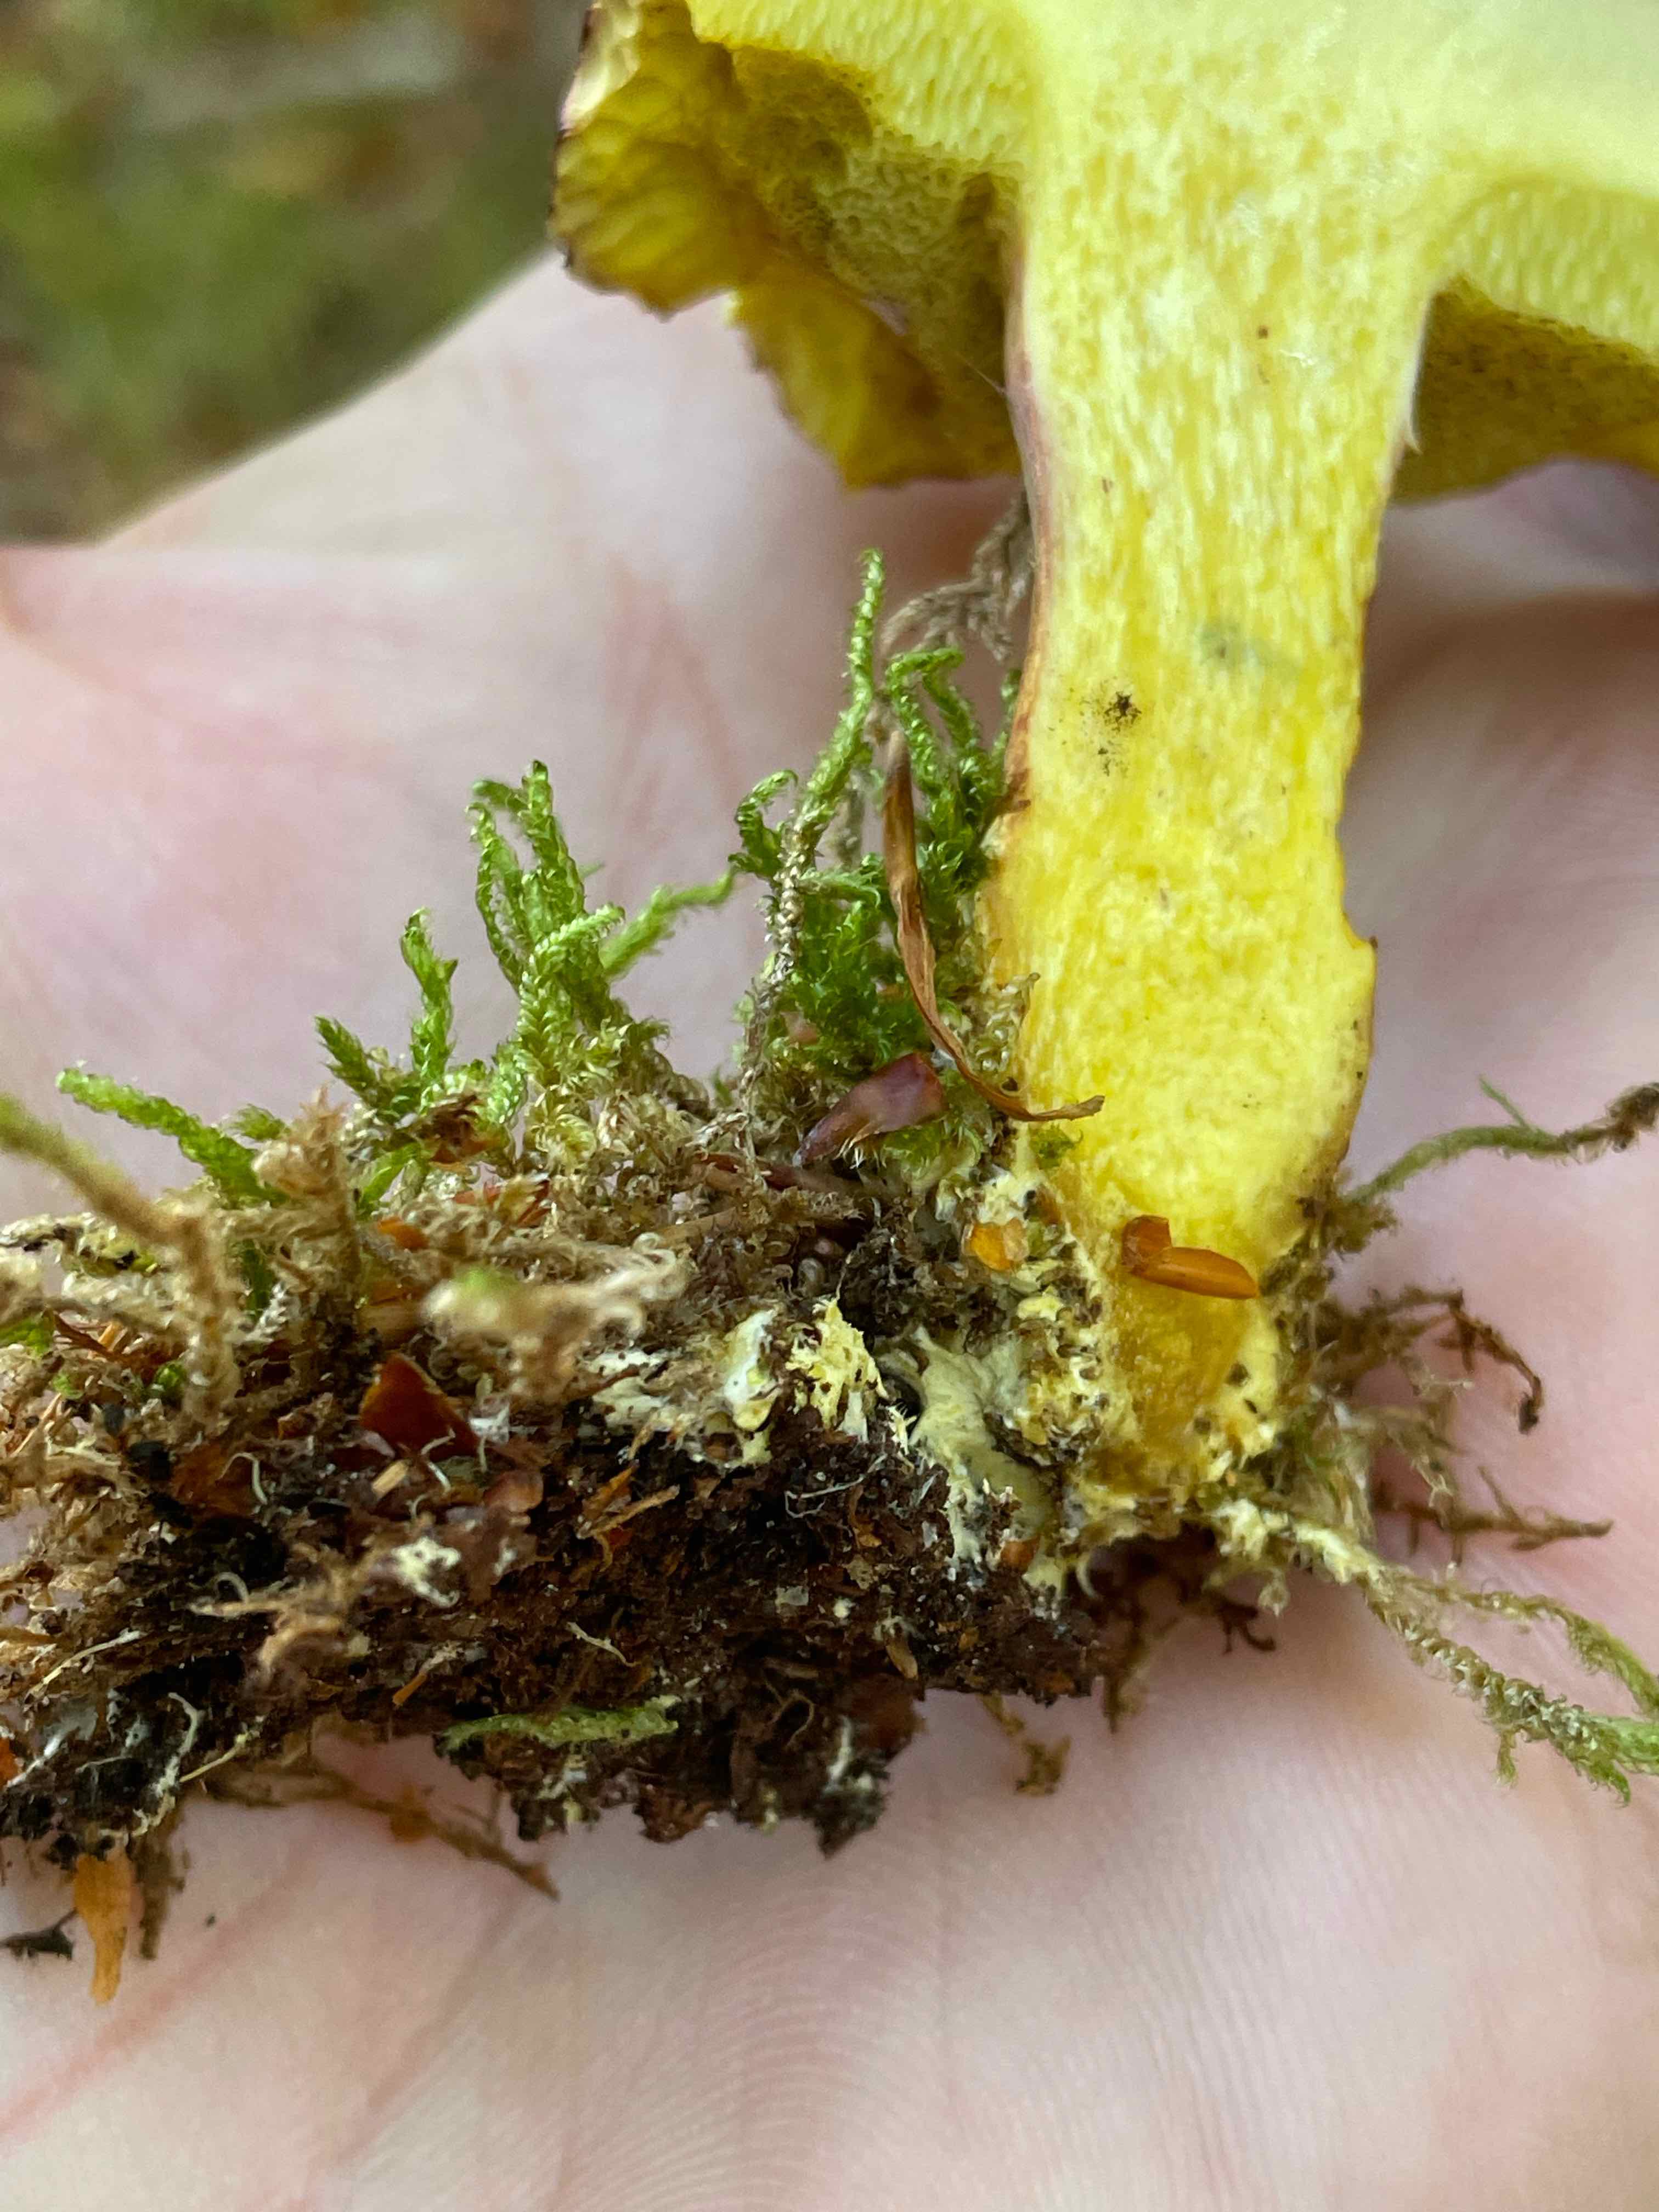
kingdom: Fungi
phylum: Basidiomycota
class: Agaricomycetes
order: Boletales
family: Boletaceae
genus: Xerocomellus
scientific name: Xerocomellus pruinatus
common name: dugget rørhat
